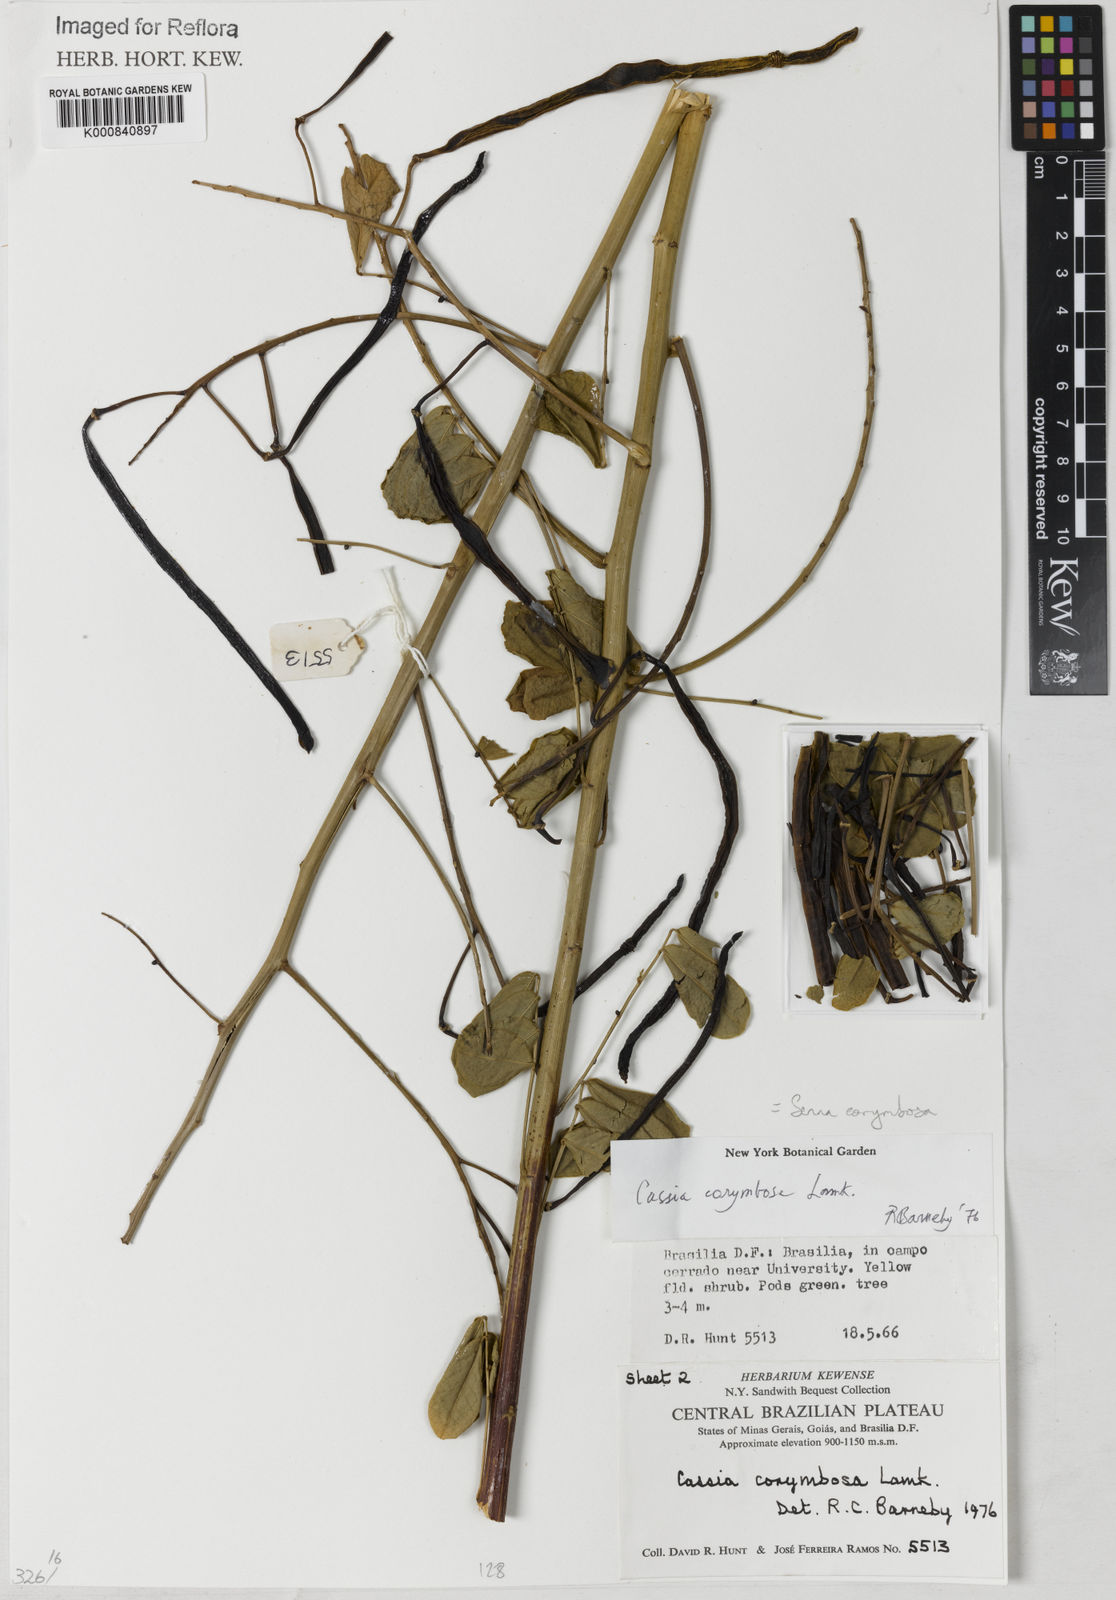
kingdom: Plantae
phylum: Tracheophyta
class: Magnoliopsida
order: Fabales
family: Fabaceae
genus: Senna
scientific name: Senna corymbosa
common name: Argentine senna
